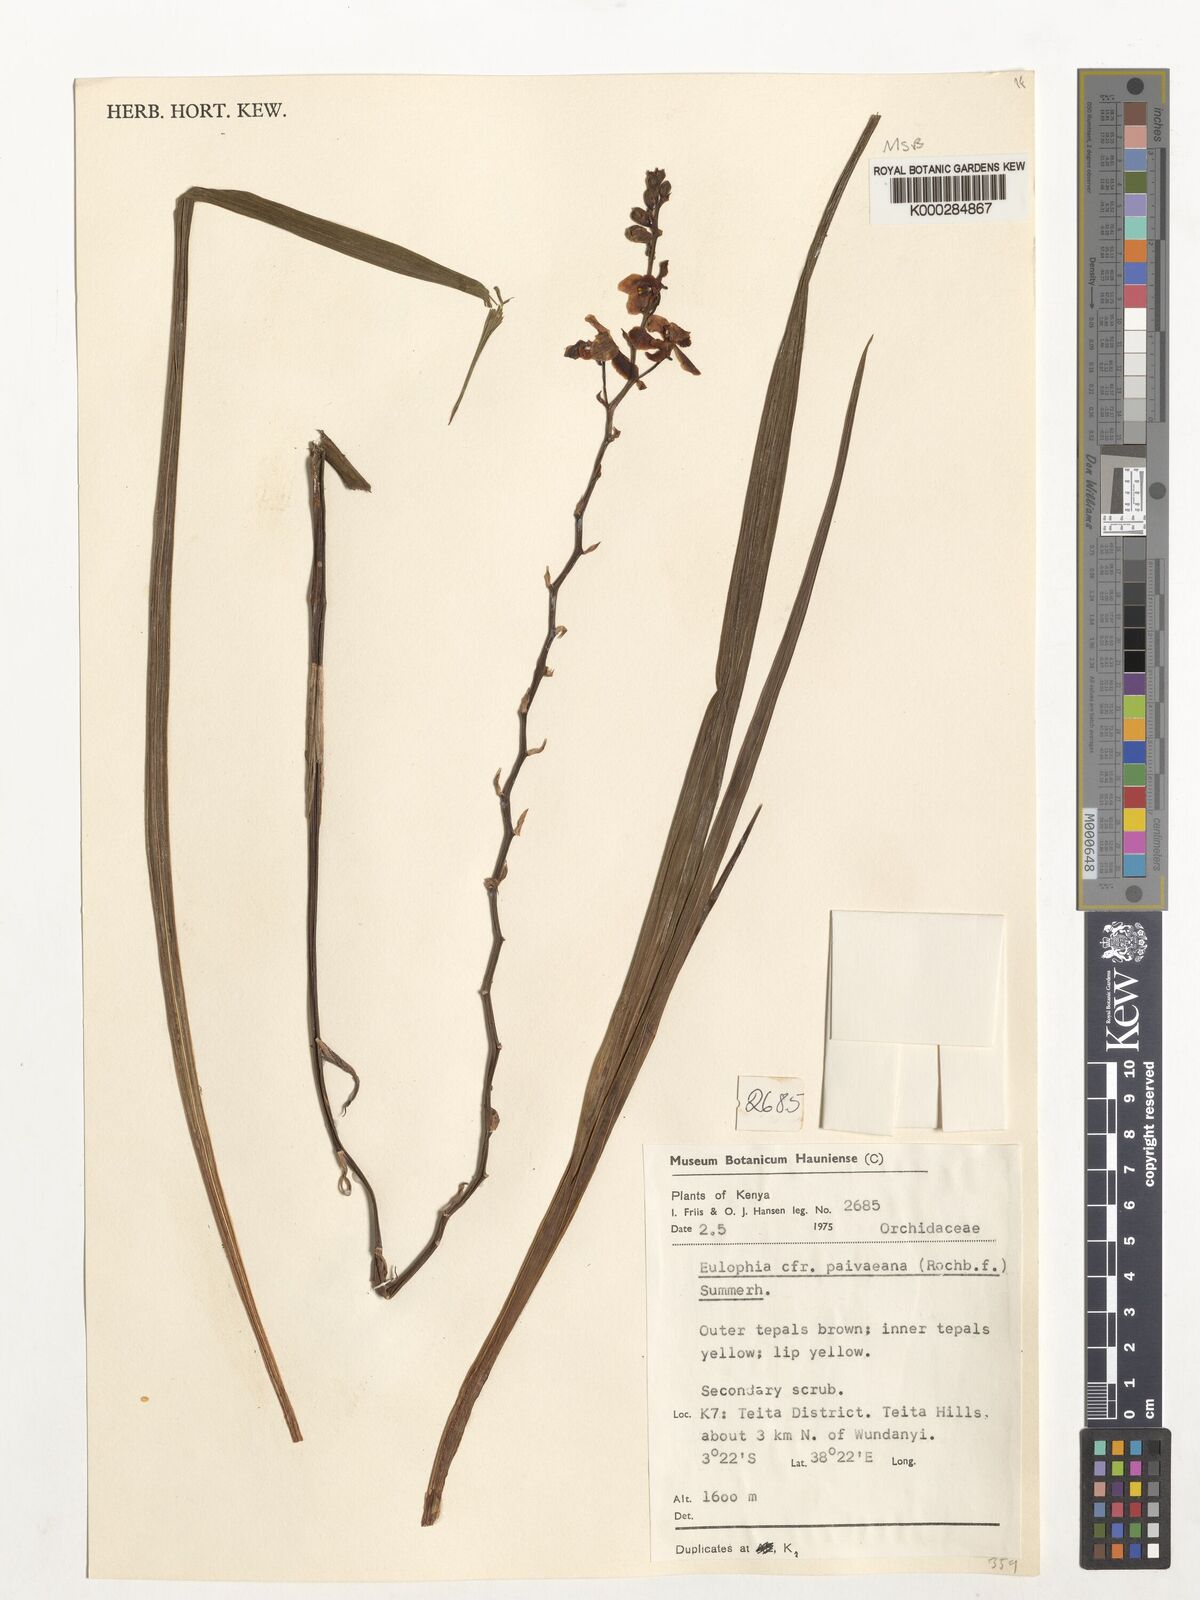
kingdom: Plantae
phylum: Tracheophyta
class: Liliopsida
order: Asparagales
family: Orchidaceae
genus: Eulophia
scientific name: Eulophia streptopetala
